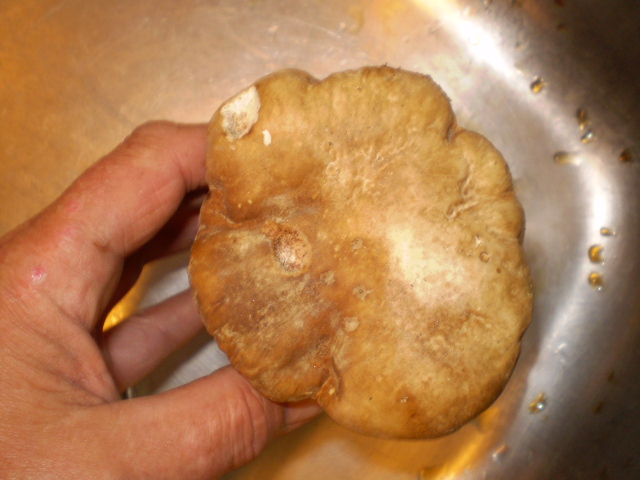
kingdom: Fungi
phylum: Basidiomycota
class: Agaricomycetes
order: Boletales
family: Boletaceae
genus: Boletus
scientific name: Boletus reticulatus
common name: sommer-rørhat
